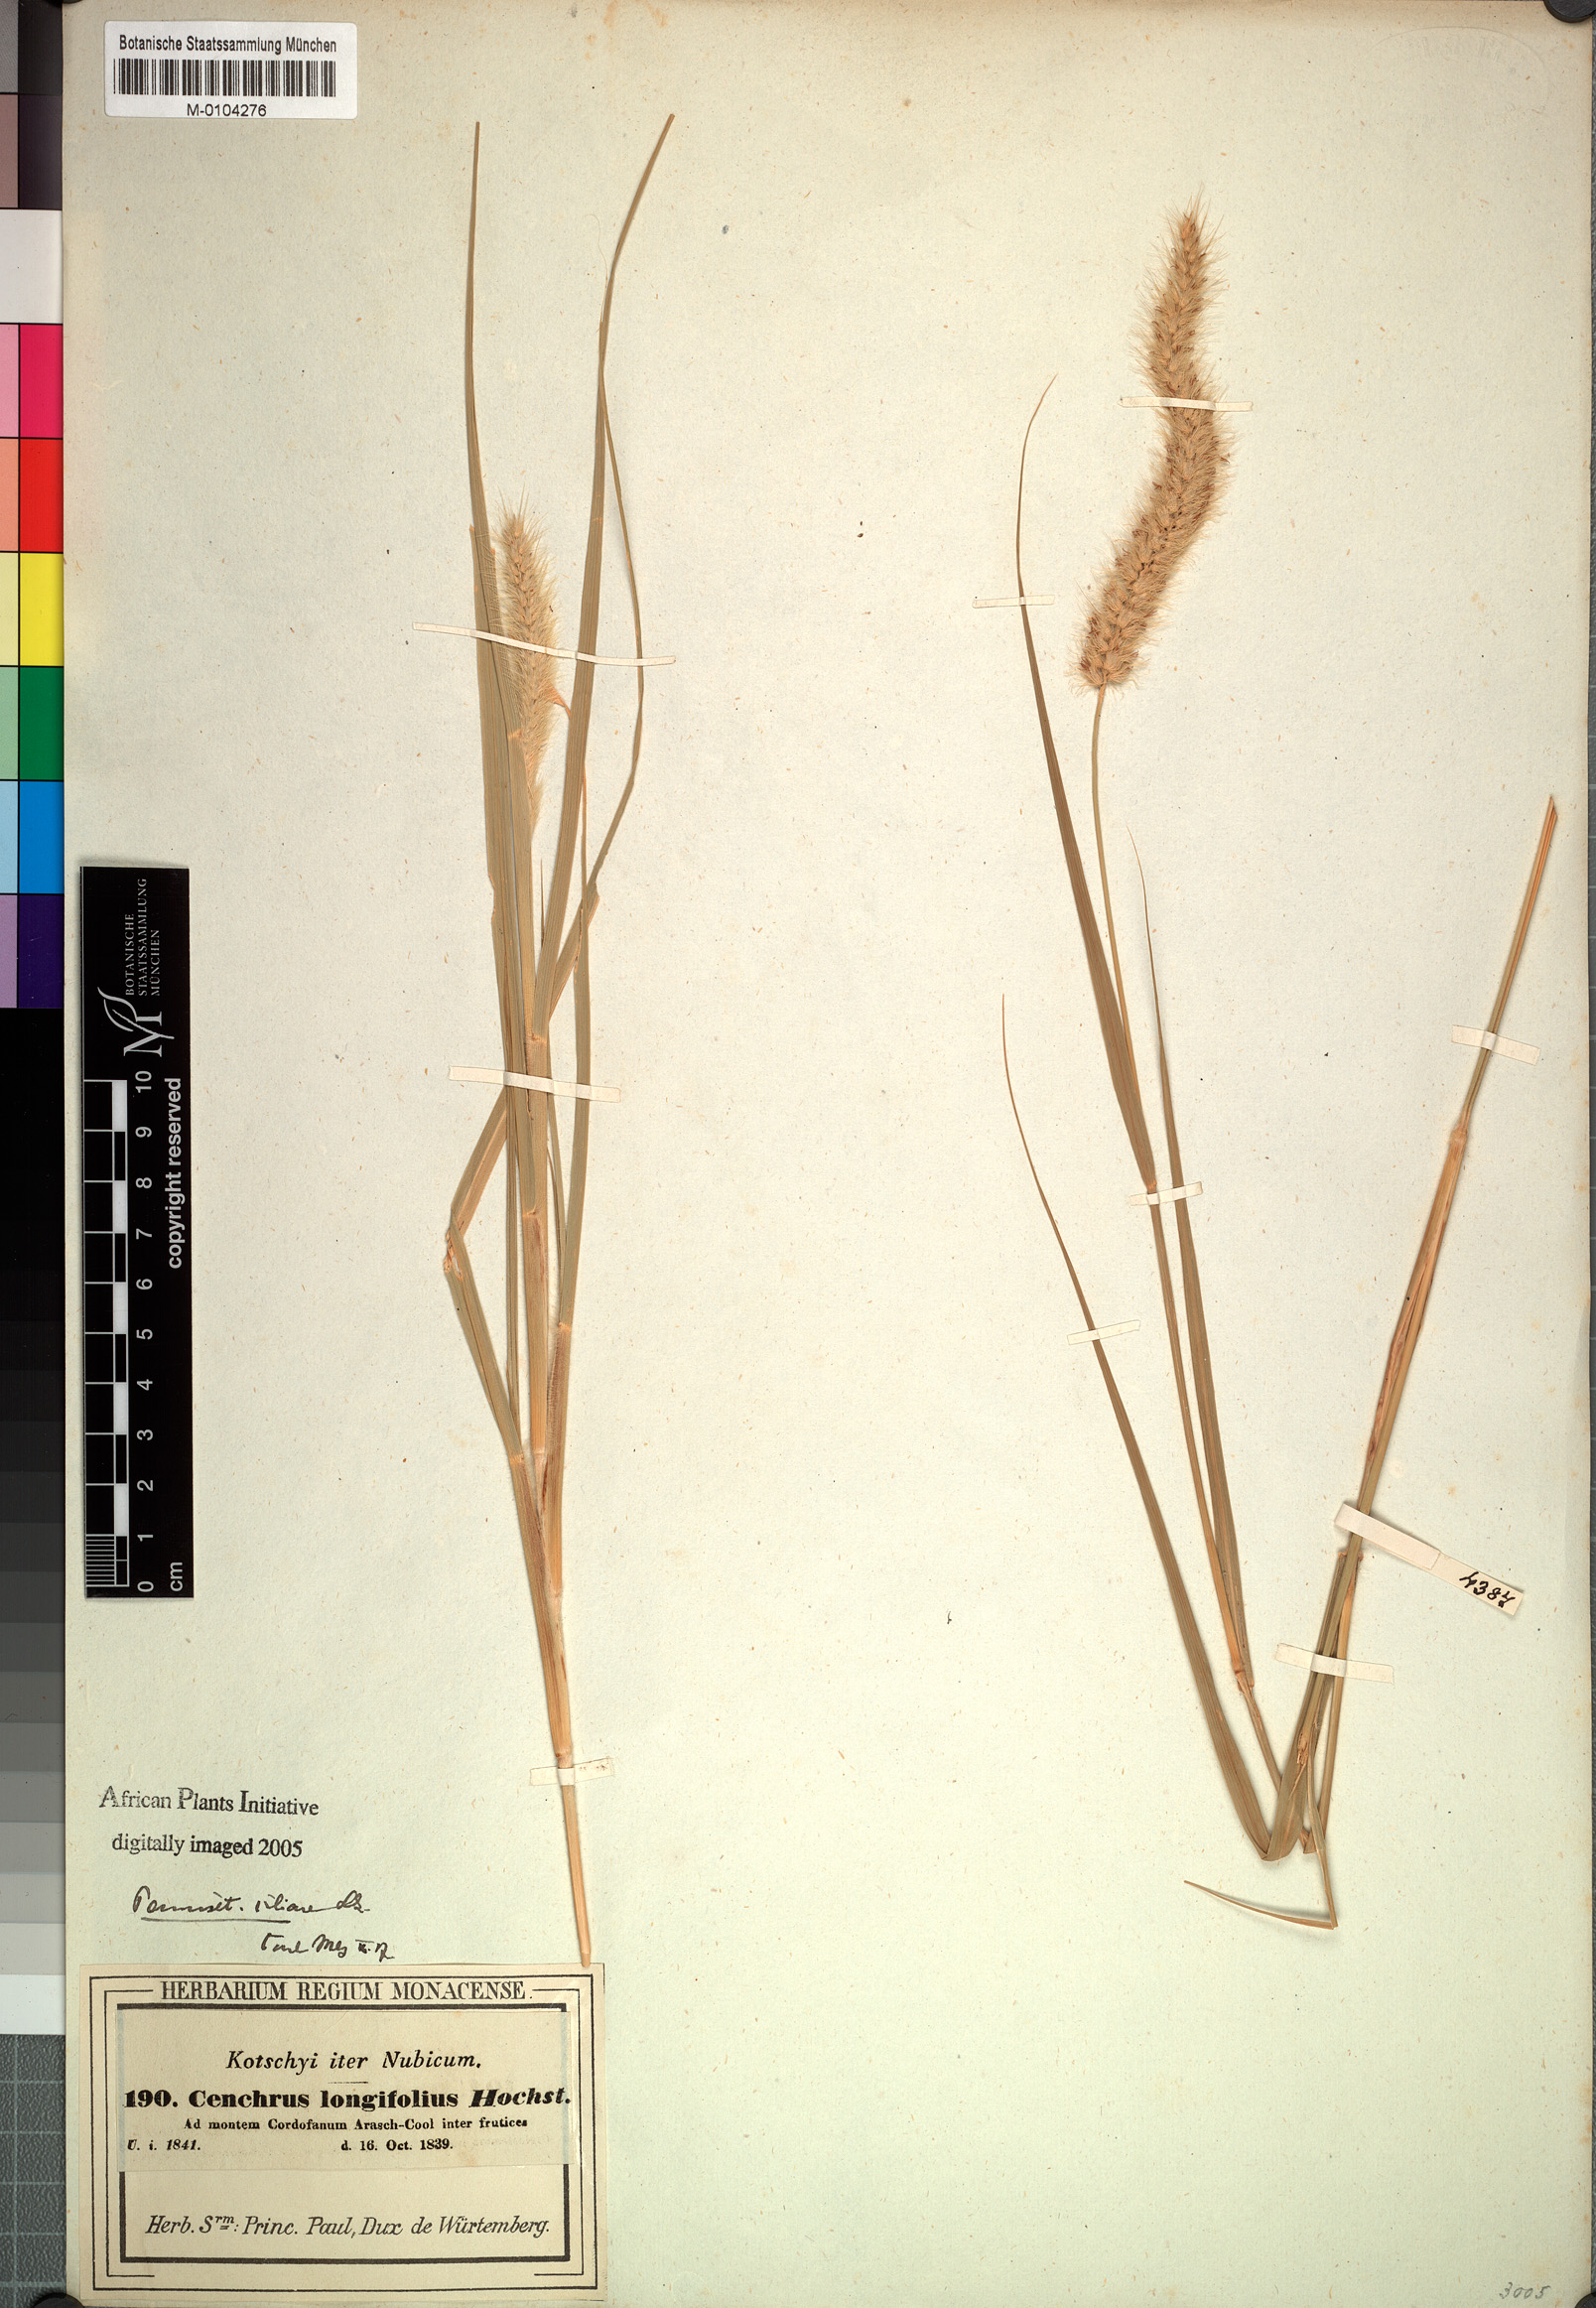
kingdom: Plantae
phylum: Tracheophyta
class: Liliopsida
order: Poales
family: Poaceae
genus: Cenchrus
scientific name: Cenchrus ciliaris
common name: Buffelgrass
